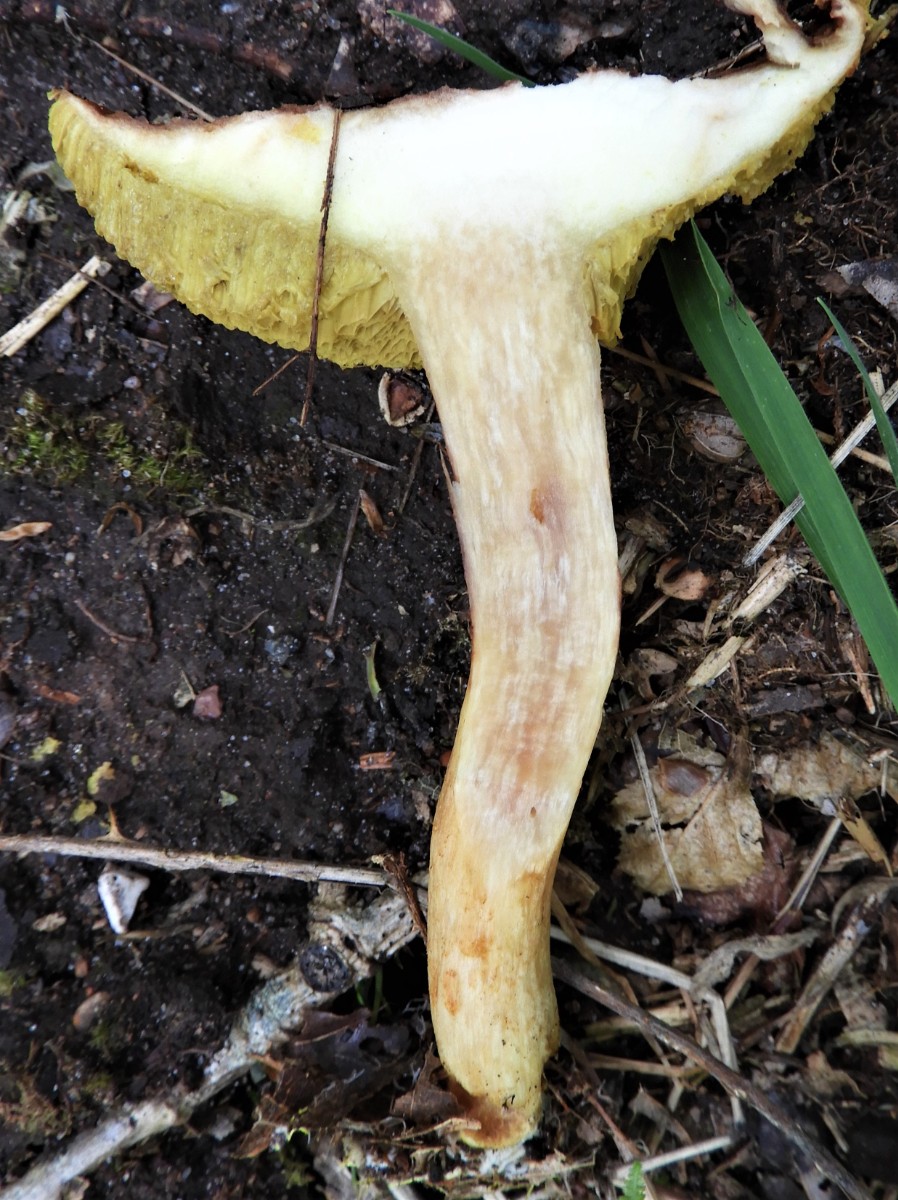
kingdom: Fungi
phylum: Basidiomycota
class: Agaricomycetes
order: Boletales
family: Boletaceae
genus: Xerocomus
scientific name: Xerocomus
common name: filtrørhat
